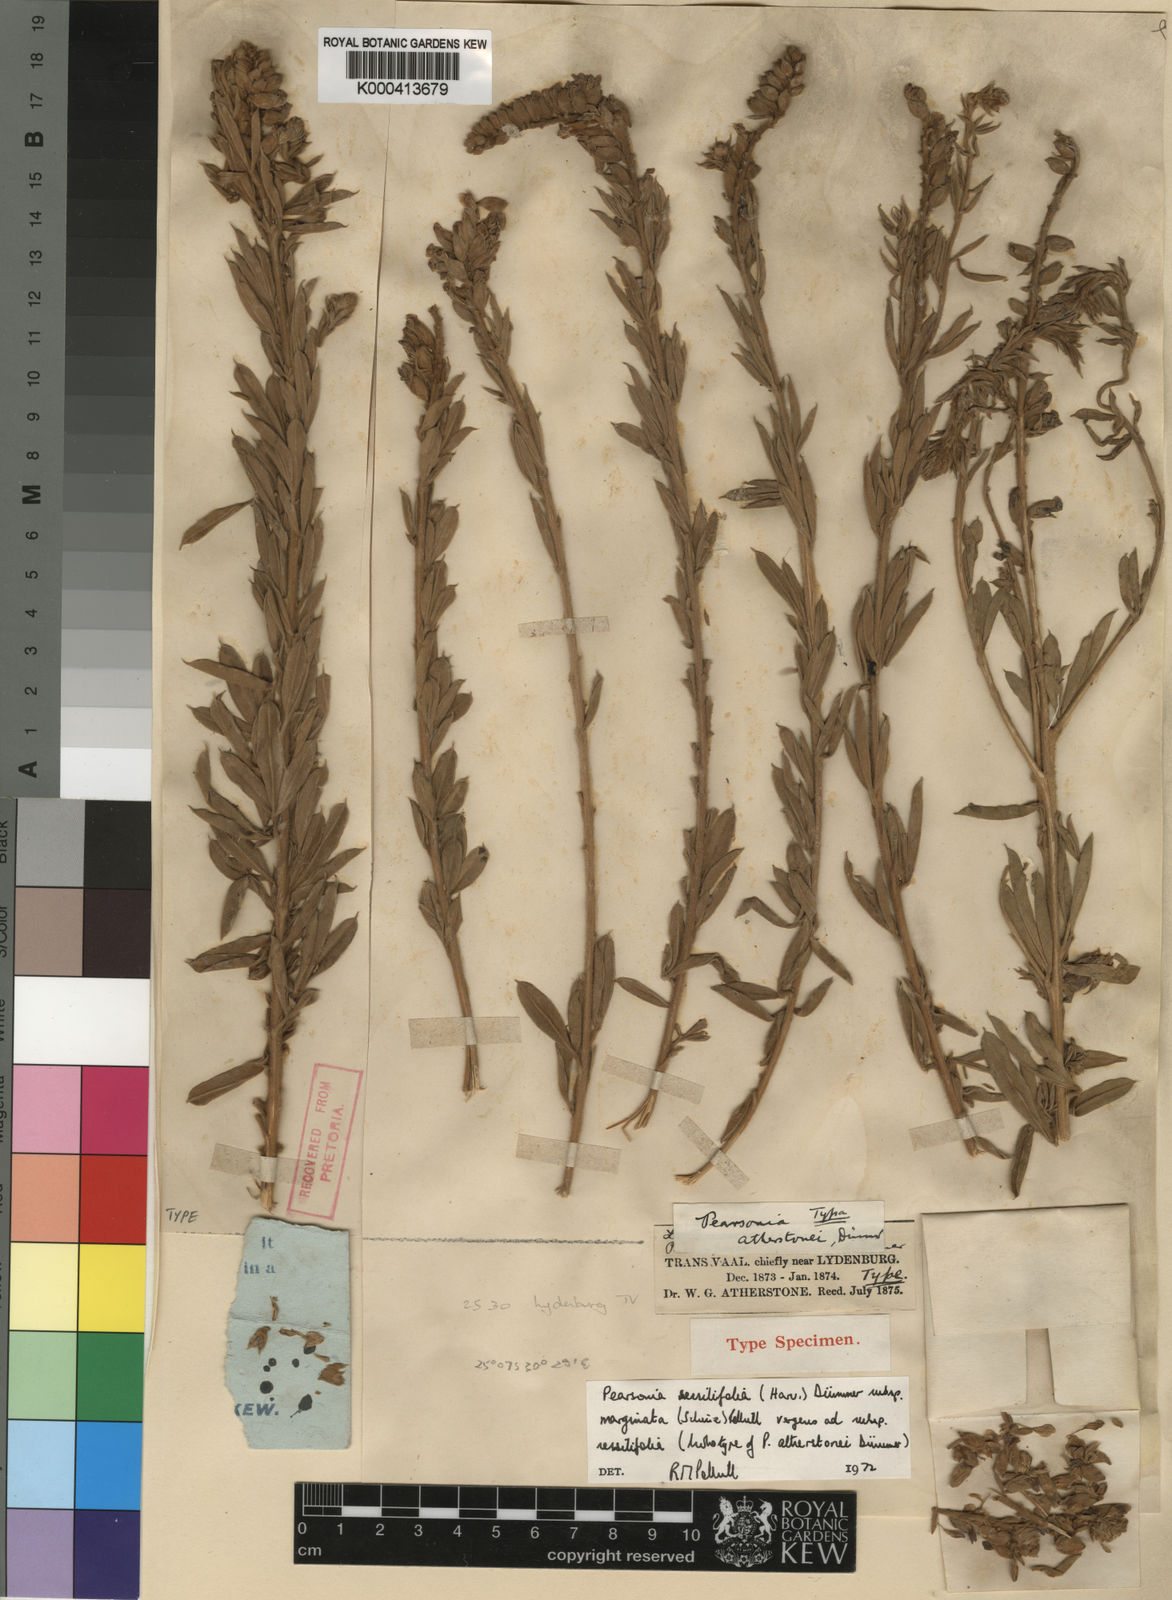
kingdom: Plantae
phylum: Tracheophyta
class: Magnoliopsida
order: Fabales
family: Fabaceae
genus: Pearsonia
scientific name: Pearsonia sessilifolia
